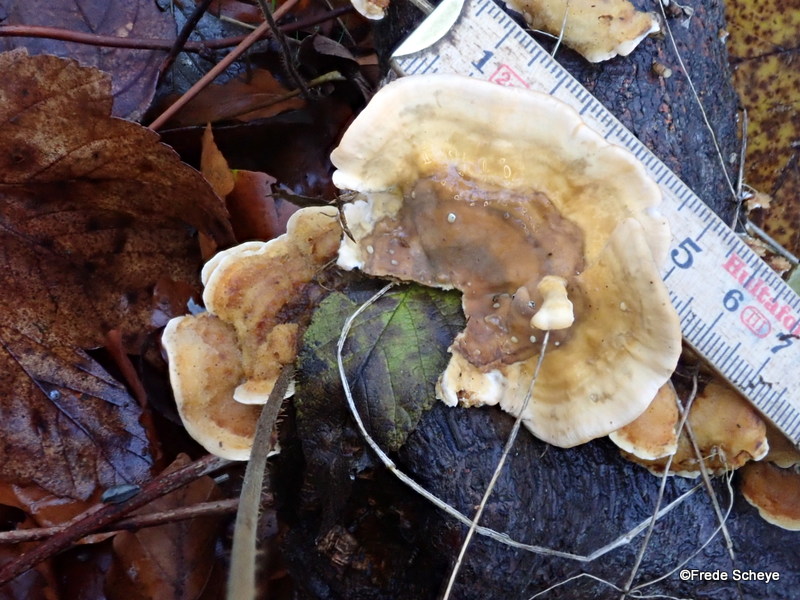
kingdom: Fungi
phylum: Basidiomycota
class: Agaricomycetes
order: Russulales
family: Stereaceae
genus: Stereum
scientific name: Stereum hirsutum
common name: håret lædersvamp
